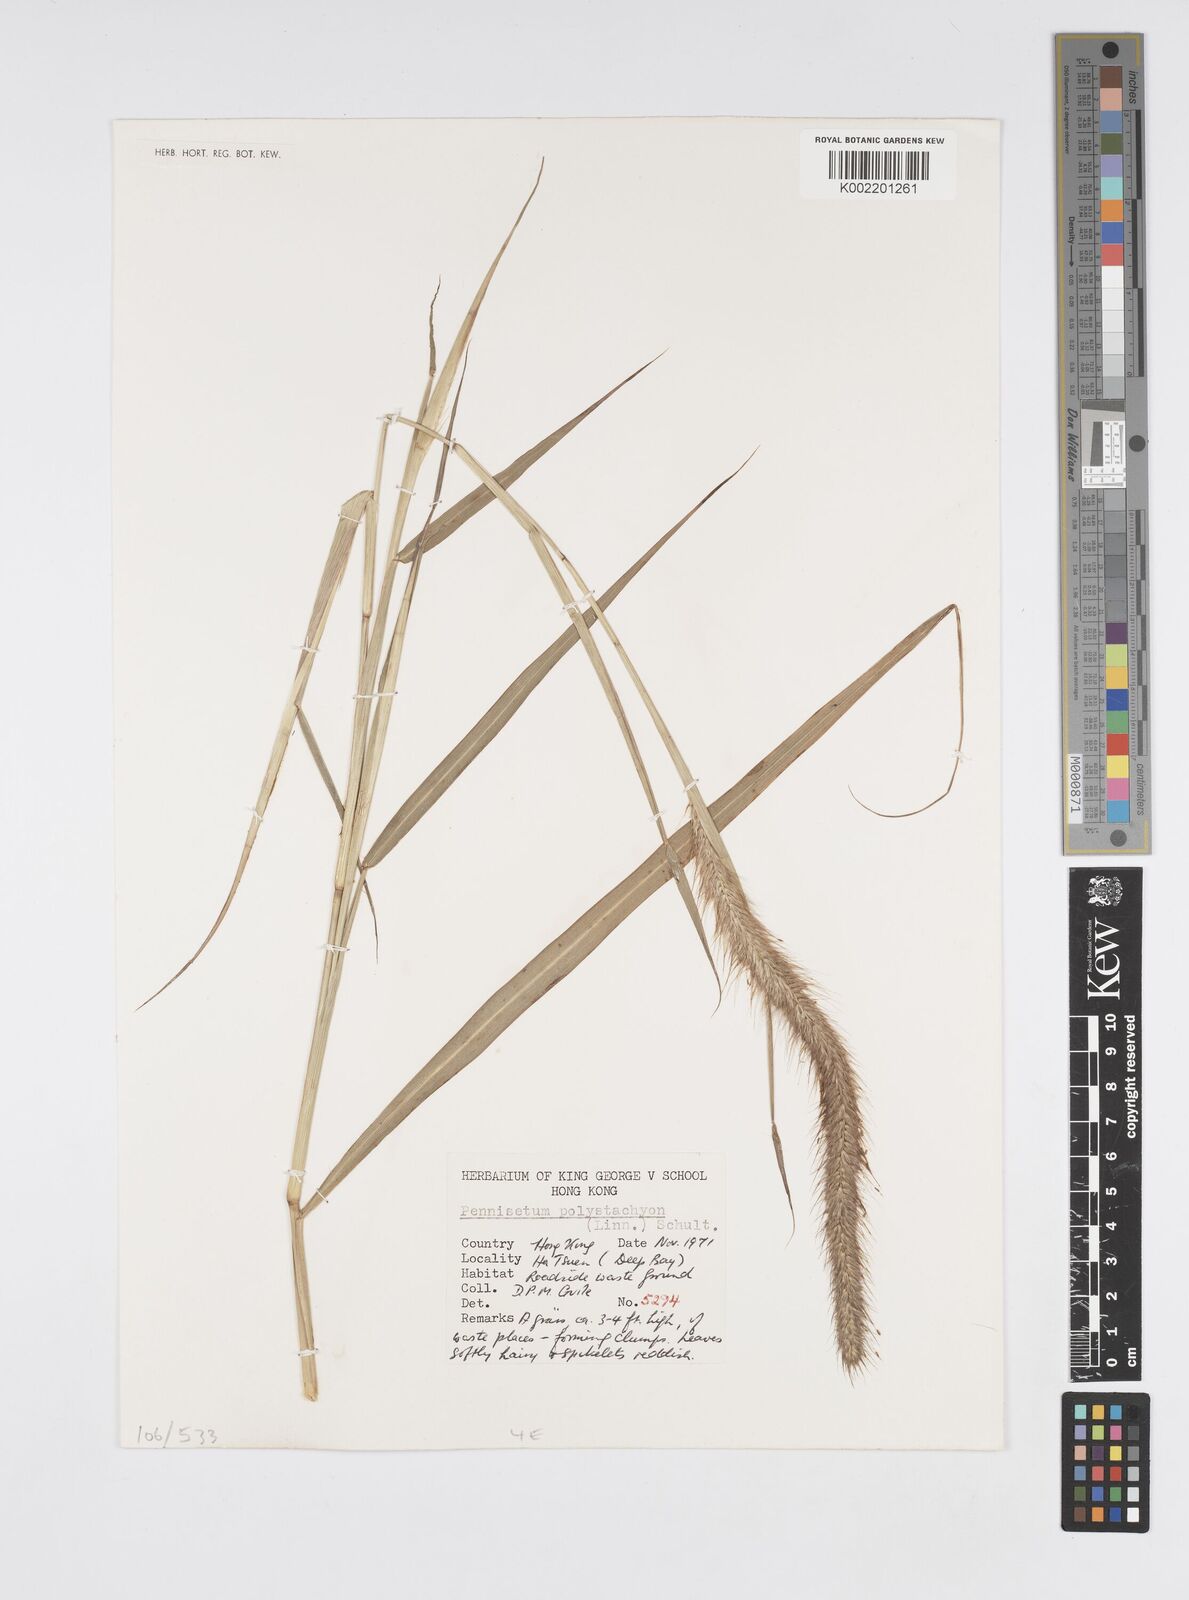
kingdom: Plantae
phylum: Tracheophyta
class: Liliopsida
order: Poales
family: Poaceae
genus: Setaria
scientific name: Setaria parviflora
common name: Knotroot bristle-grass
